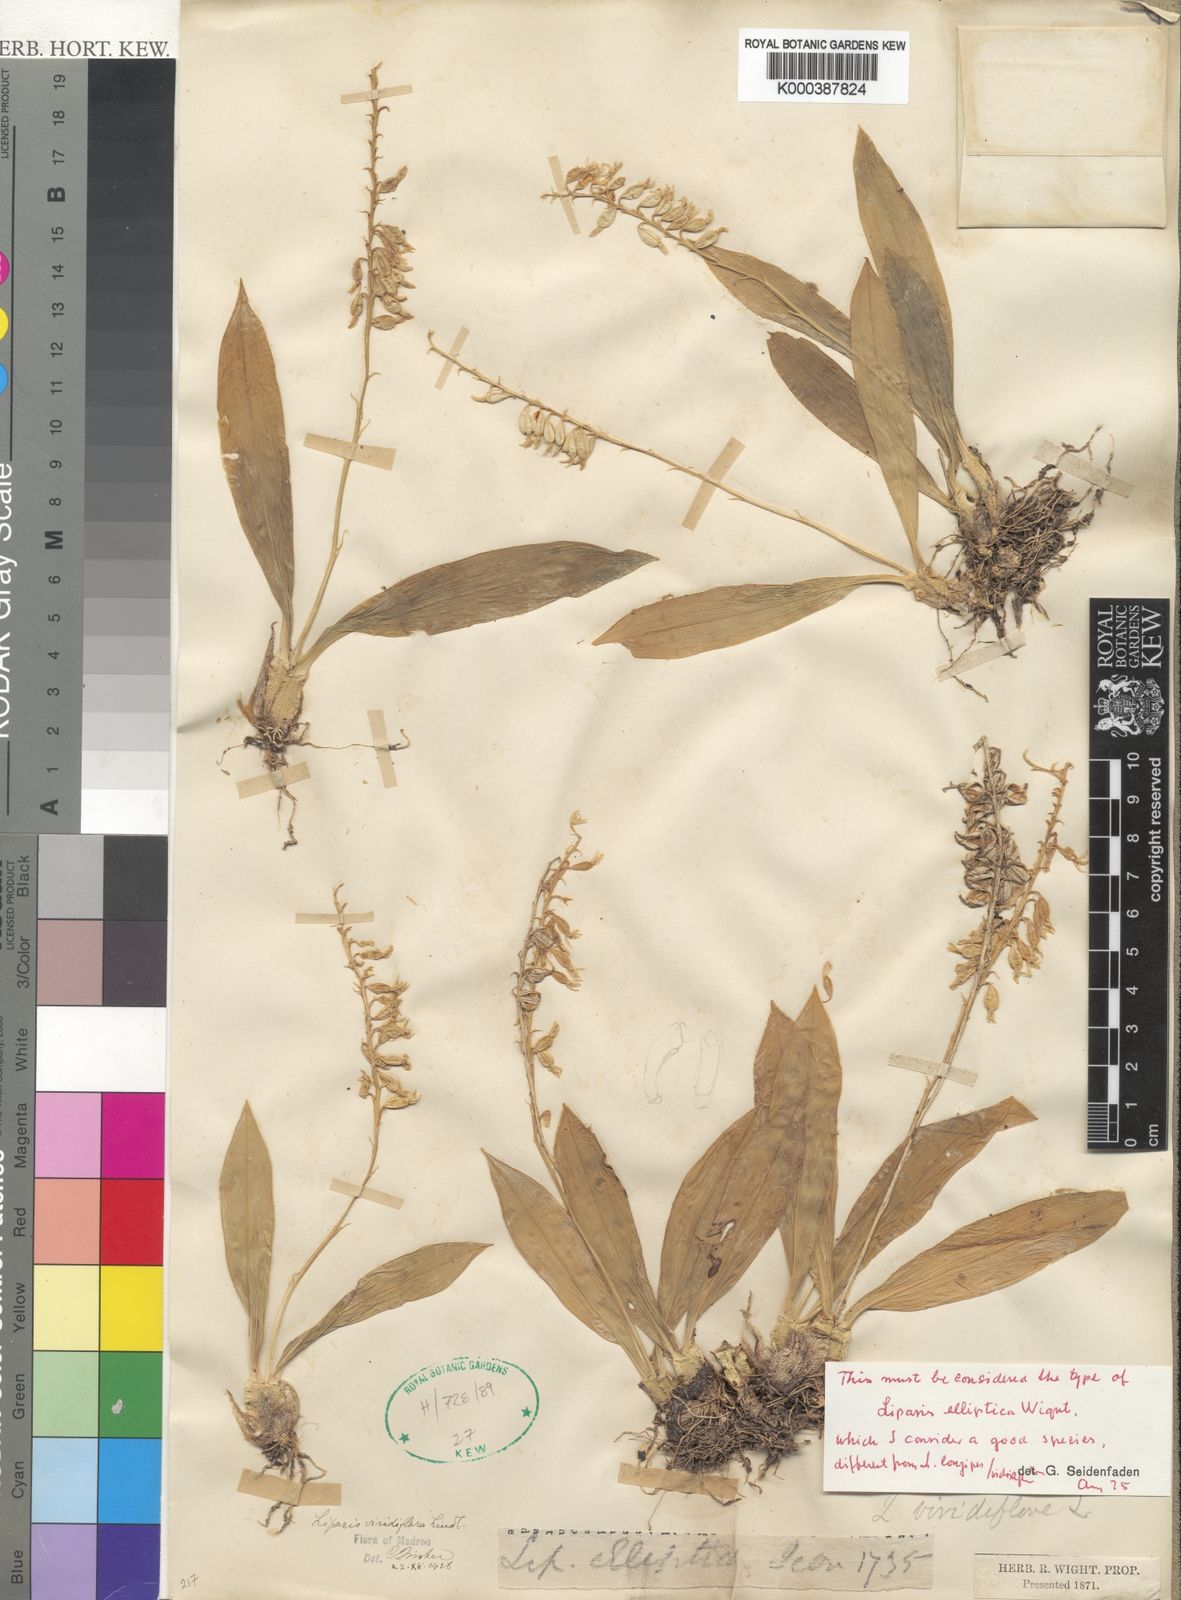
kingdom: Plantae
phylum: Tracheophyta
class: Liliopsida
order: Asparagales
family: Orchidaceae
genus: Liparis
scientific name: Liparis elliptica
